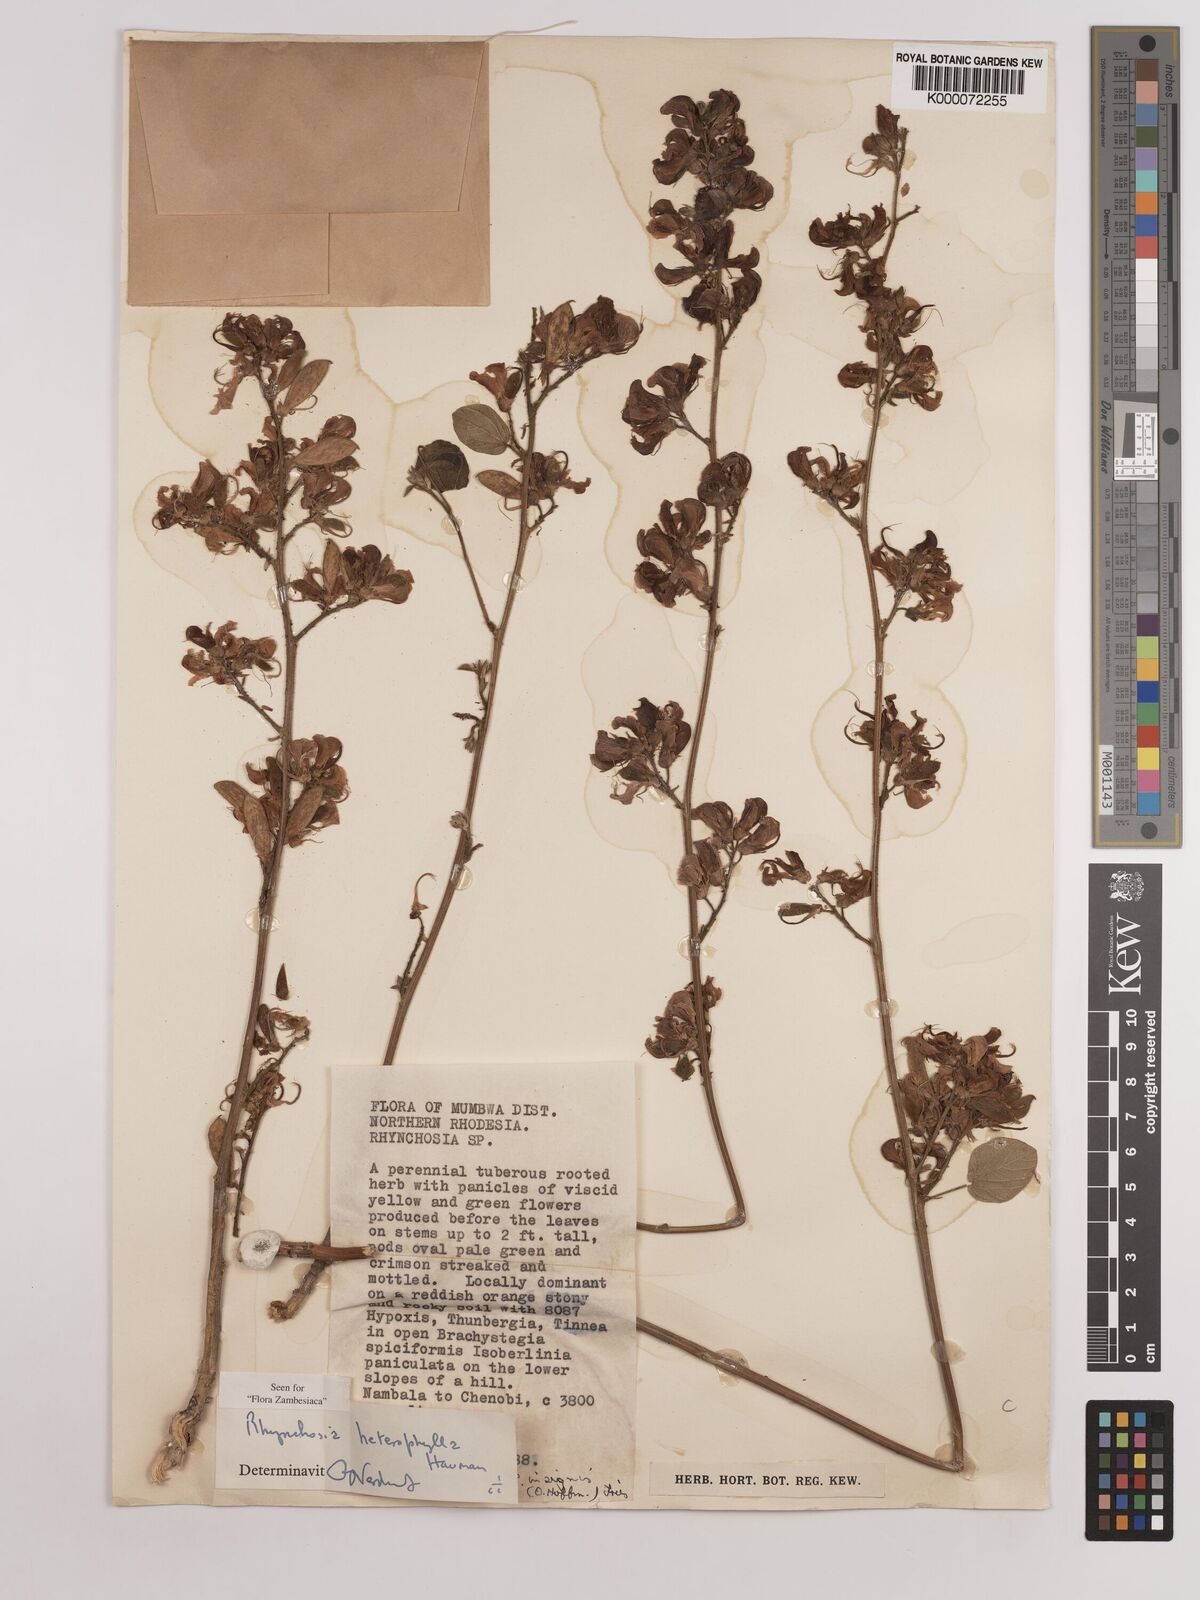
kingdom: Plantae
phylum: Tracheophyta
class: Magnoliopsida
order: Fabales
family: Fabaceae
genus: Rhynchosia
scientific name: Rhynchosia heterophylla
